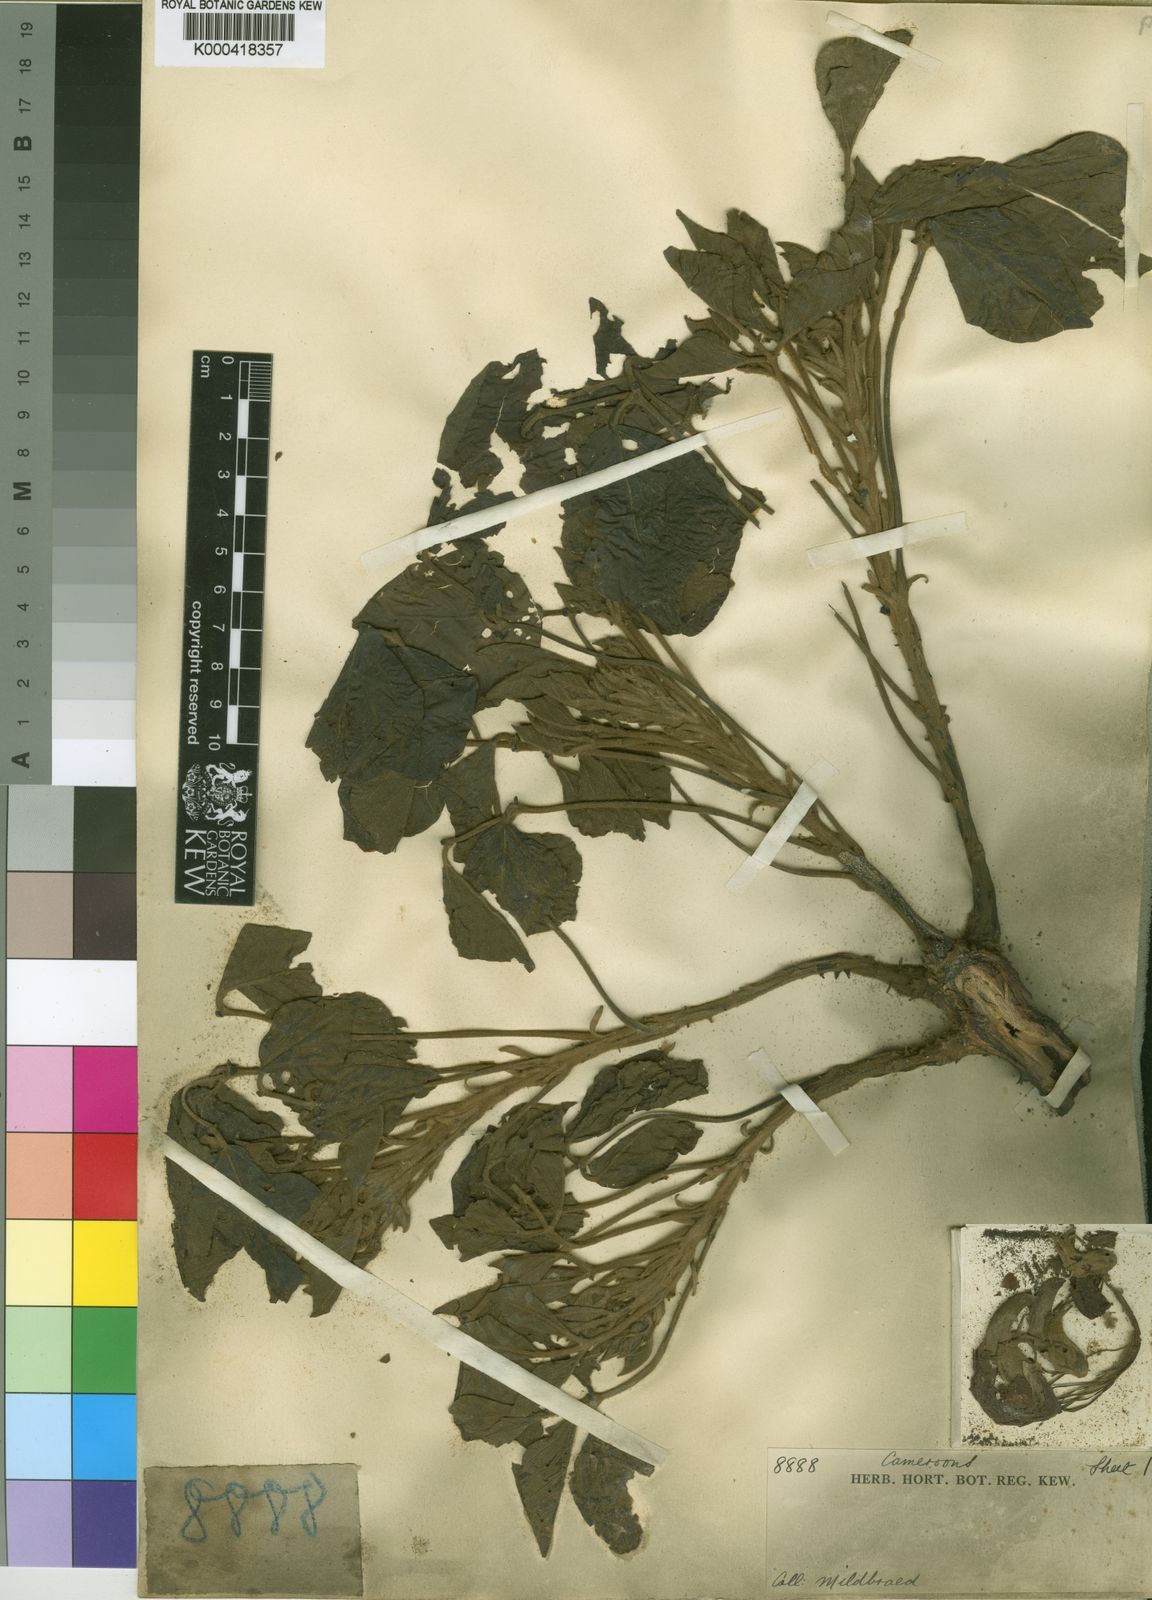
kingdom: Plantae
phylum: Tracheophyta
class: Magnoliopsida
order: Fabales
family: Fabaceae
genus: Erythrina
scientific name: Erythrina droogmansiana
